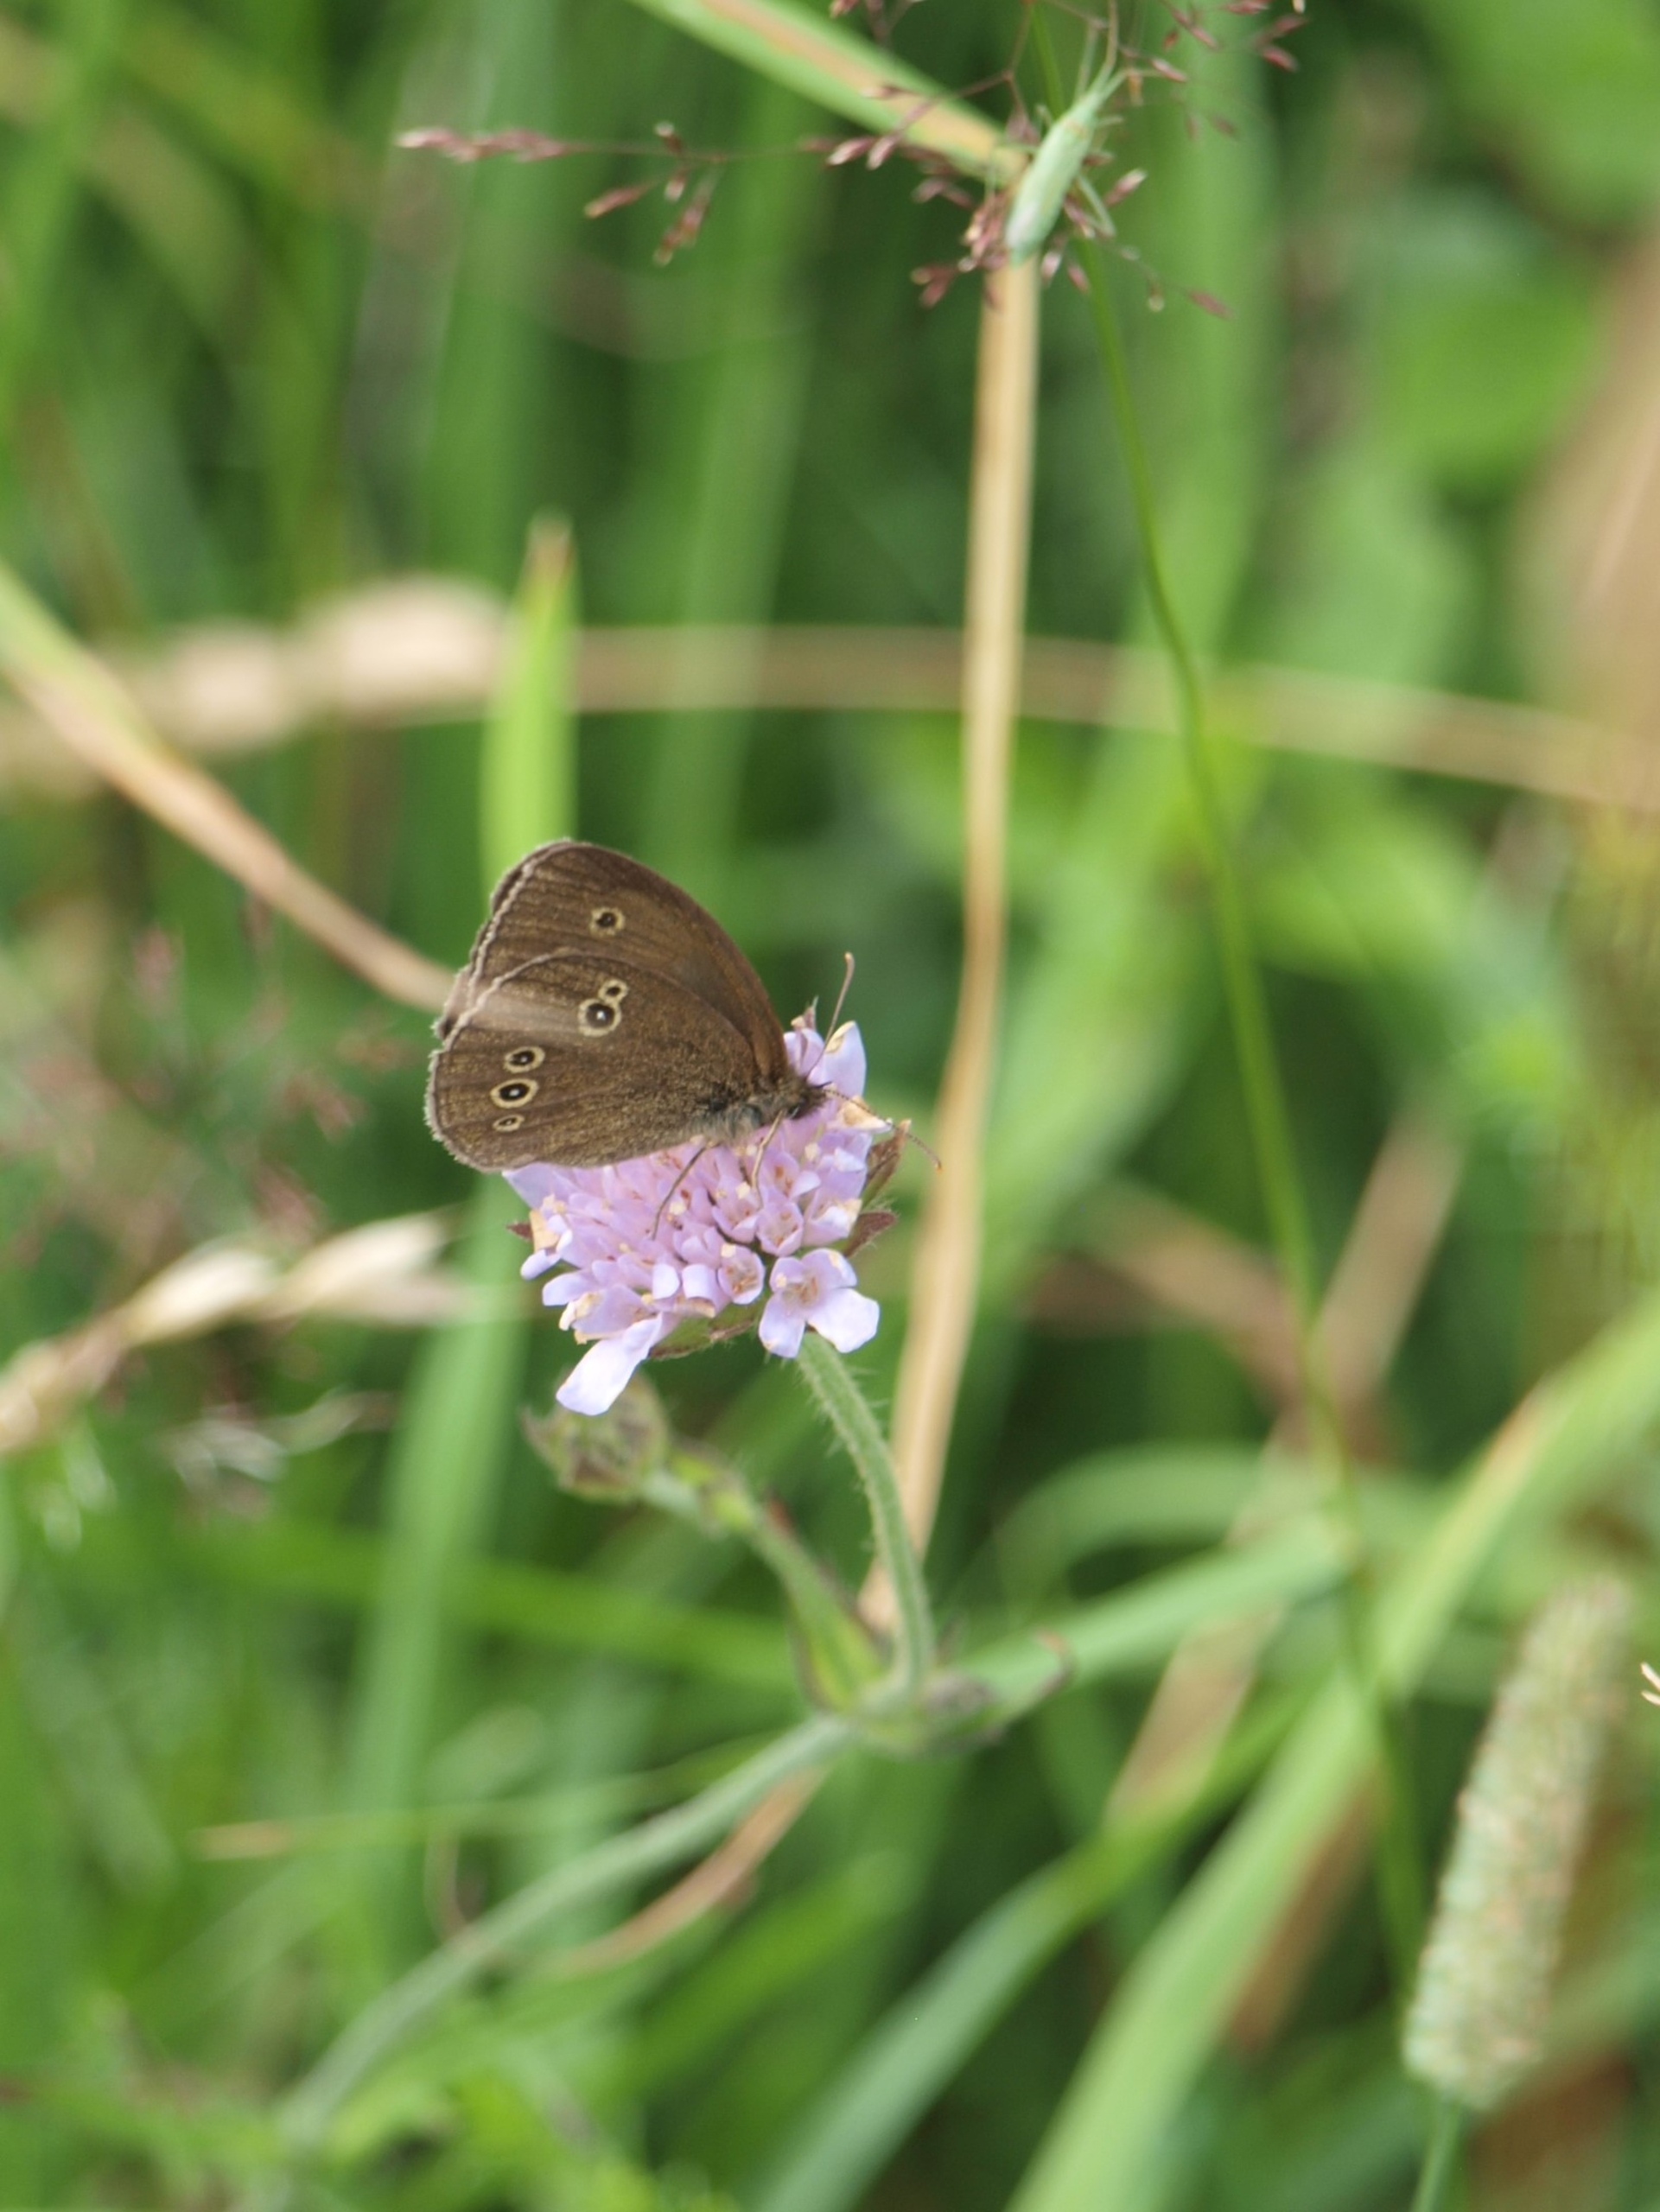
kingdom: Animalia
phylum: Arthropoda
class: Insecta
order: Lepidoptera
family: Nymphalidae
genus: Aphantopus
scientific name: Aphantopus hyperantus
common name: Engrandøje
